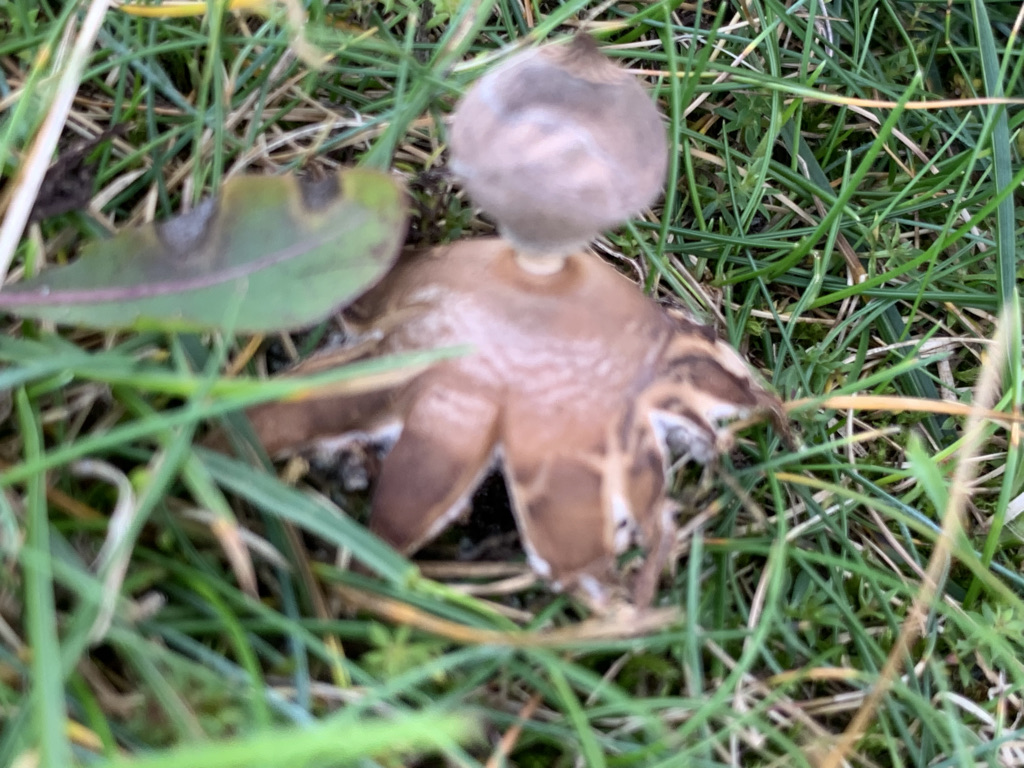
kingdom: Fungi
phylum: Basidiomycota
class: Agaricomycetes
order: Geastrales
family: Geastraceae
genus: Geastrum
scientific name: Geastrum striatum
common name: dværg-stjernebold
